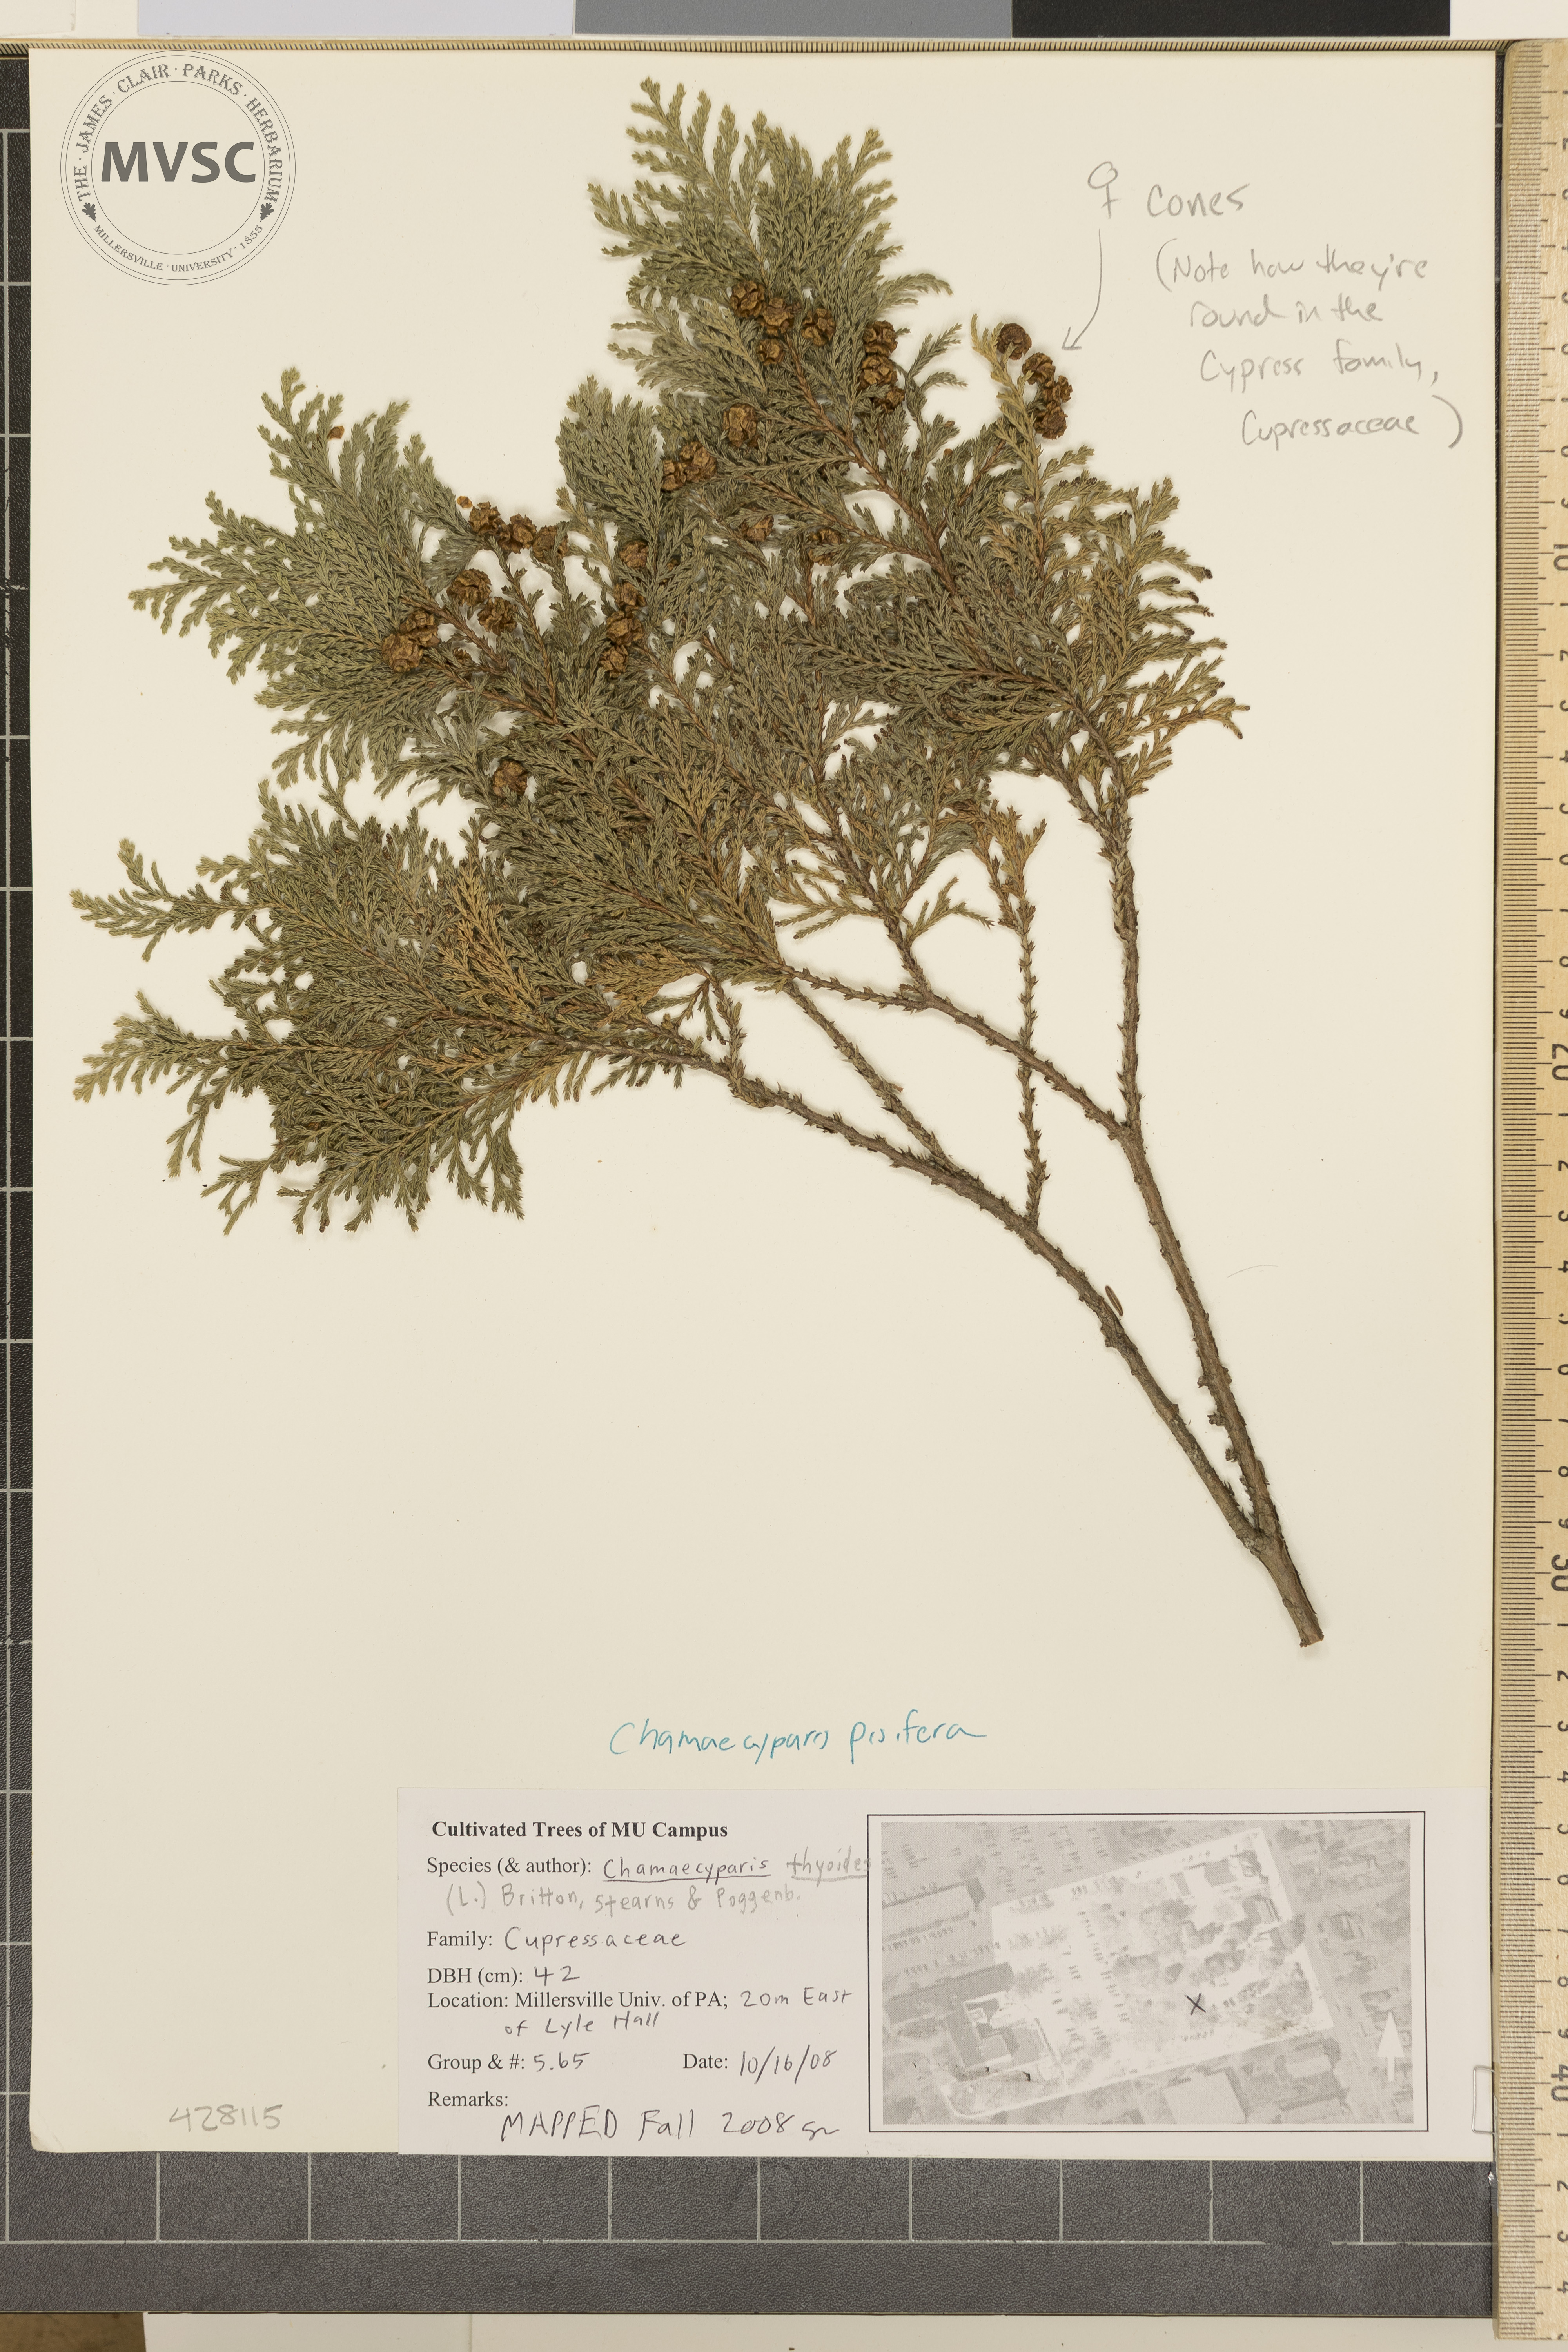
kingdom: Plantae
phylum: Tracheophyta
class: Pinopsida
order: Pinales
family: Cupressaceae
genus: Chamaecyparis
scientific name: Chamaecyparis pisifera
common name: Sawara cypress
